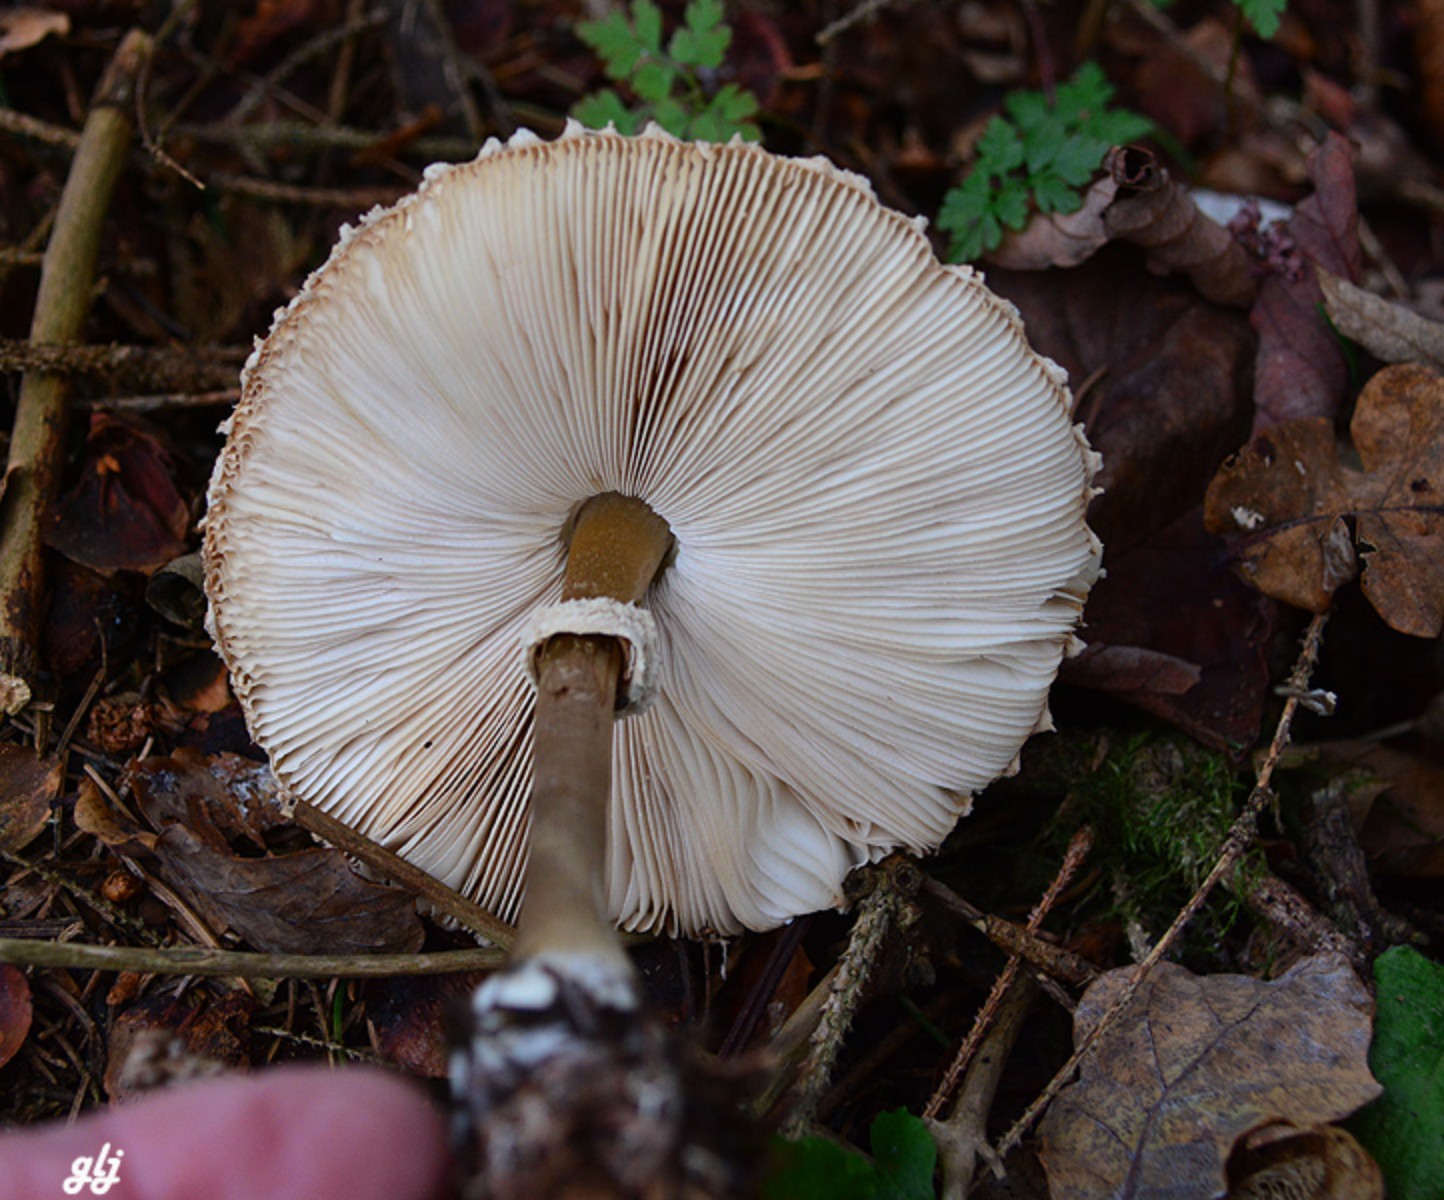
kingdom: Fungi
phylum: Basidiomycota
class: Agaricomycetes
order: Agaricales
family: Agaricaceae
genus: Leucoagaricus
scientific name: Leucoagaricus nympharum
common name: gran-silkehat
